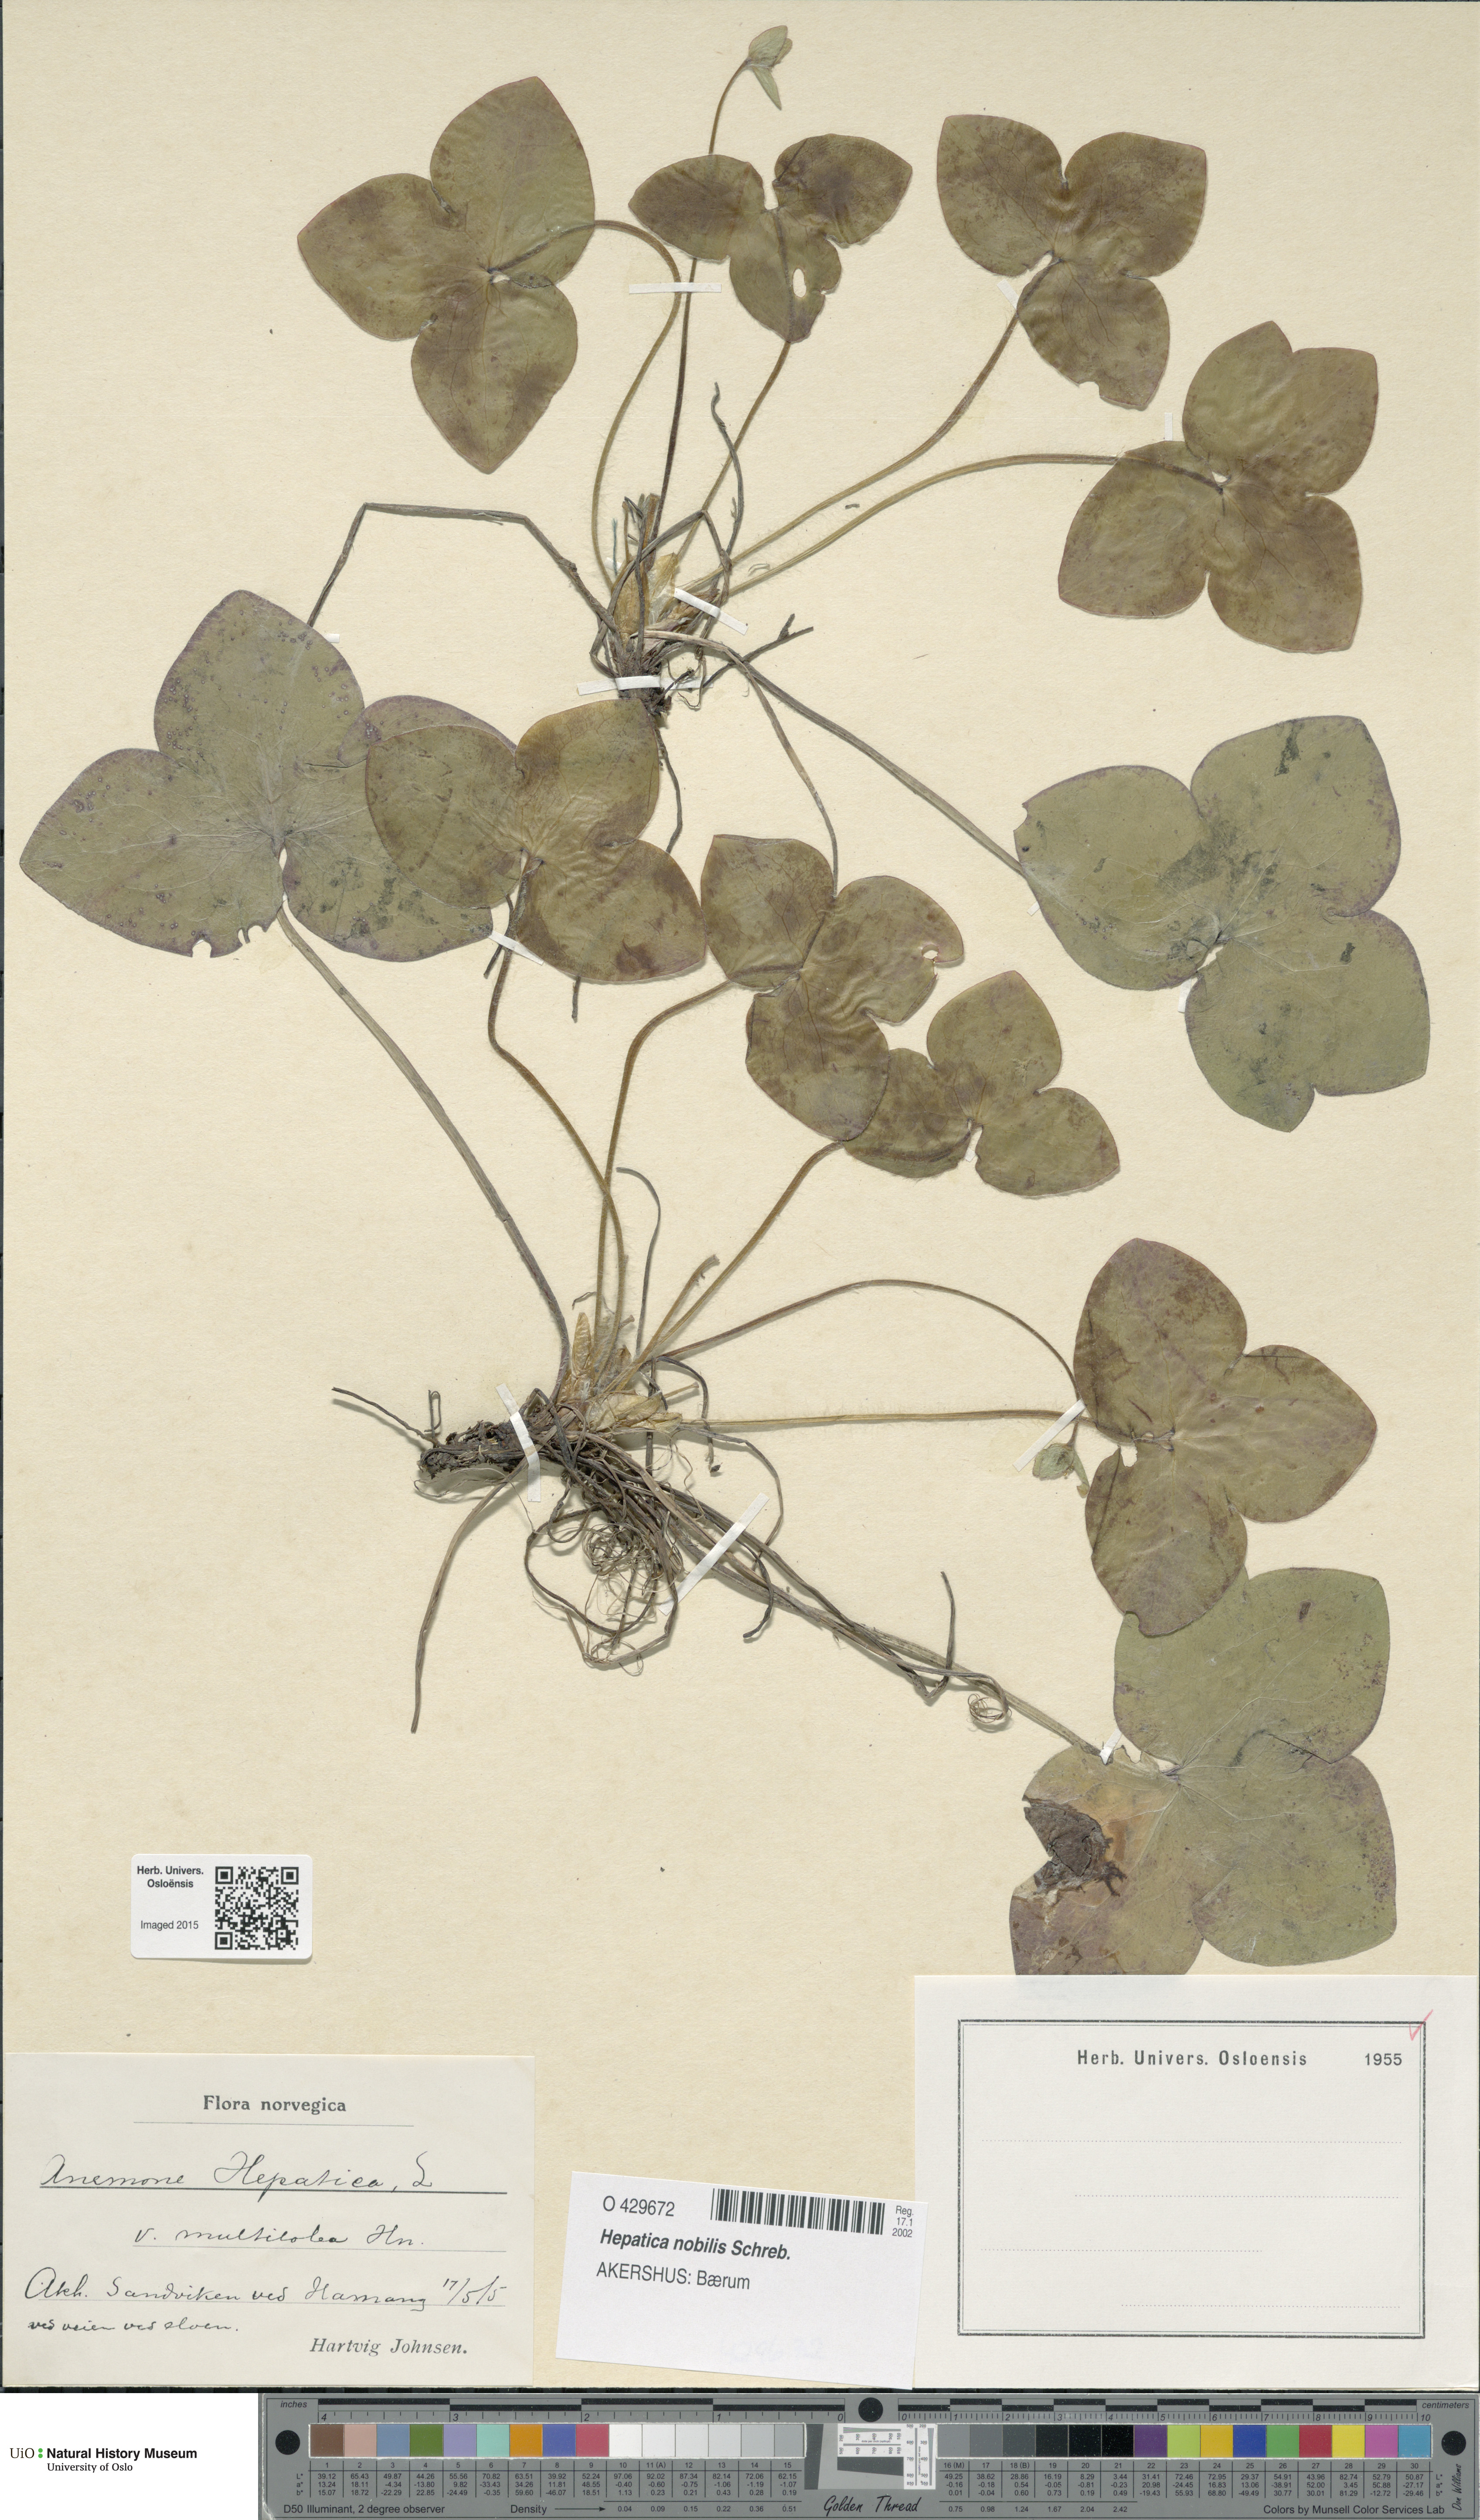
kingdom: Plantae
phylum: Tracheophyta
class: Magnoliopsida
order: Ranunculales
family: Ranunculaceae
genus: Hepatica
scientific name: Hepatica nobilis
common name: Liverleaf
